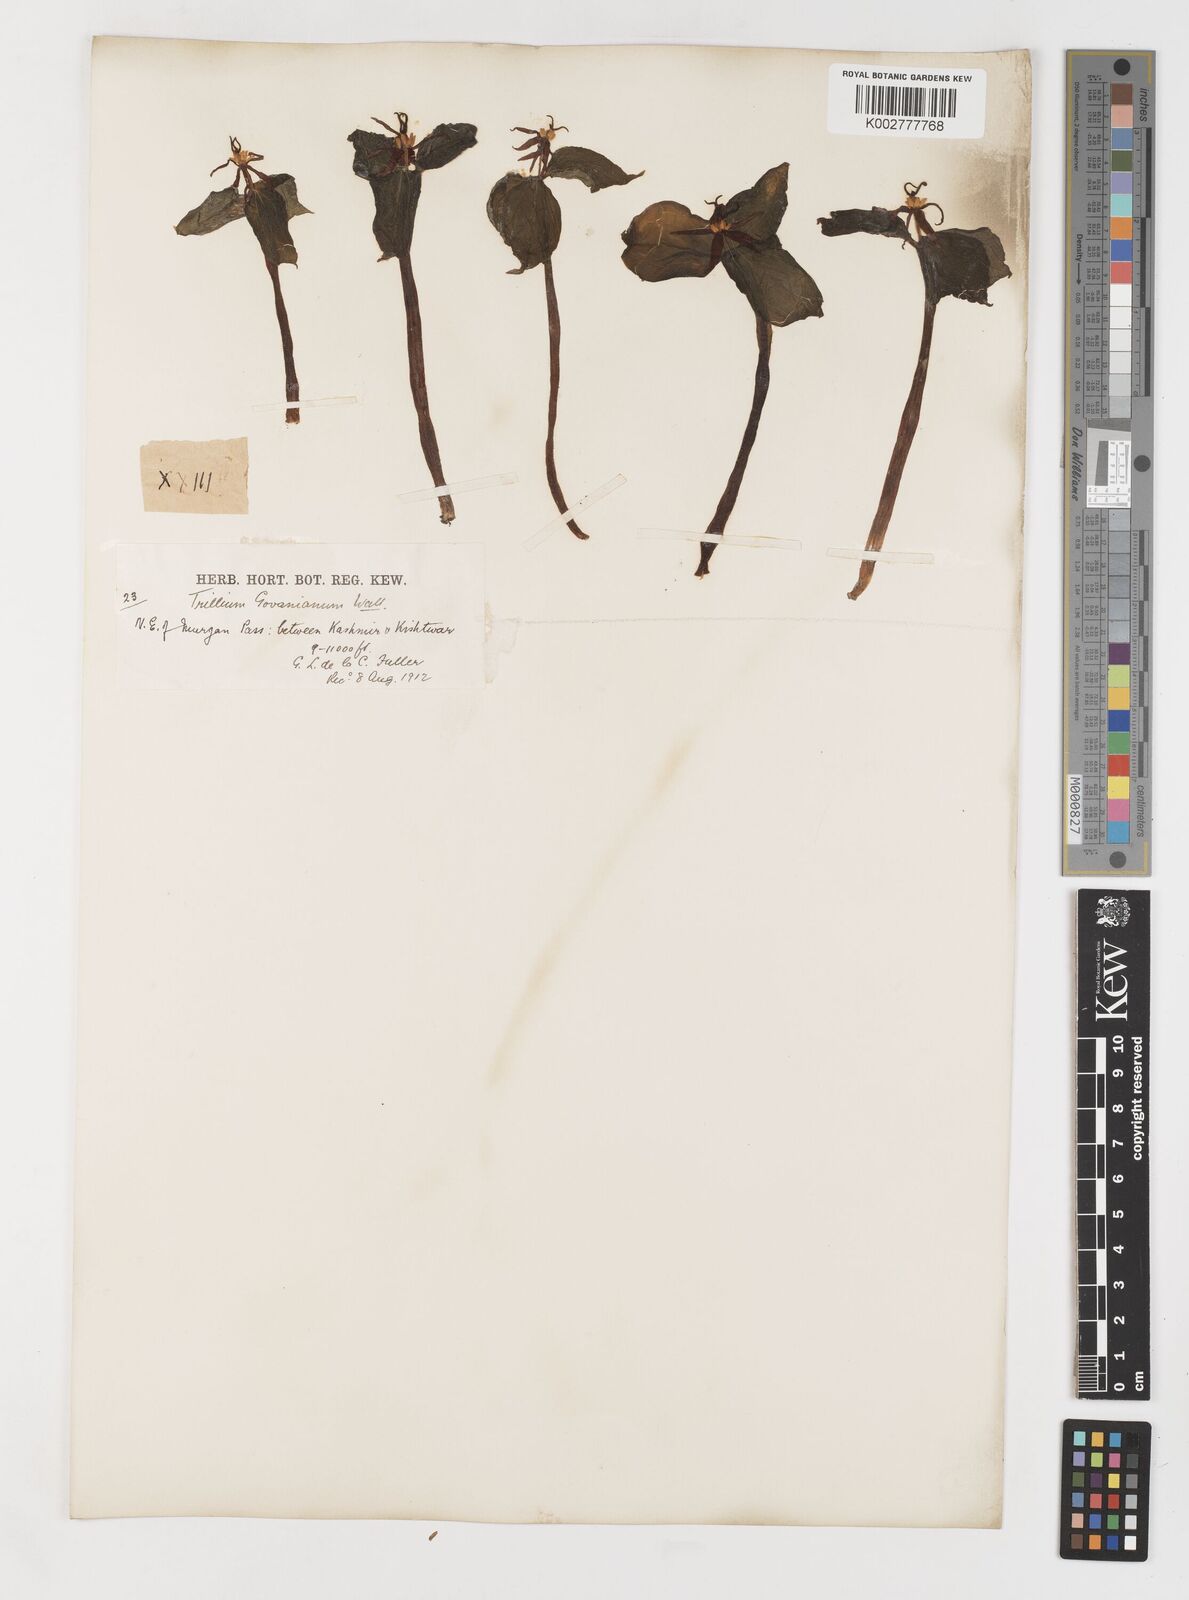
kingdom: Plantae
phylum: Tracheophyta
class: Liliopsida
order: Liliales
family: Melanthiaceae
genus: Trillium
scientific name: Trillium govanianum
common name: Himalayan trillium
